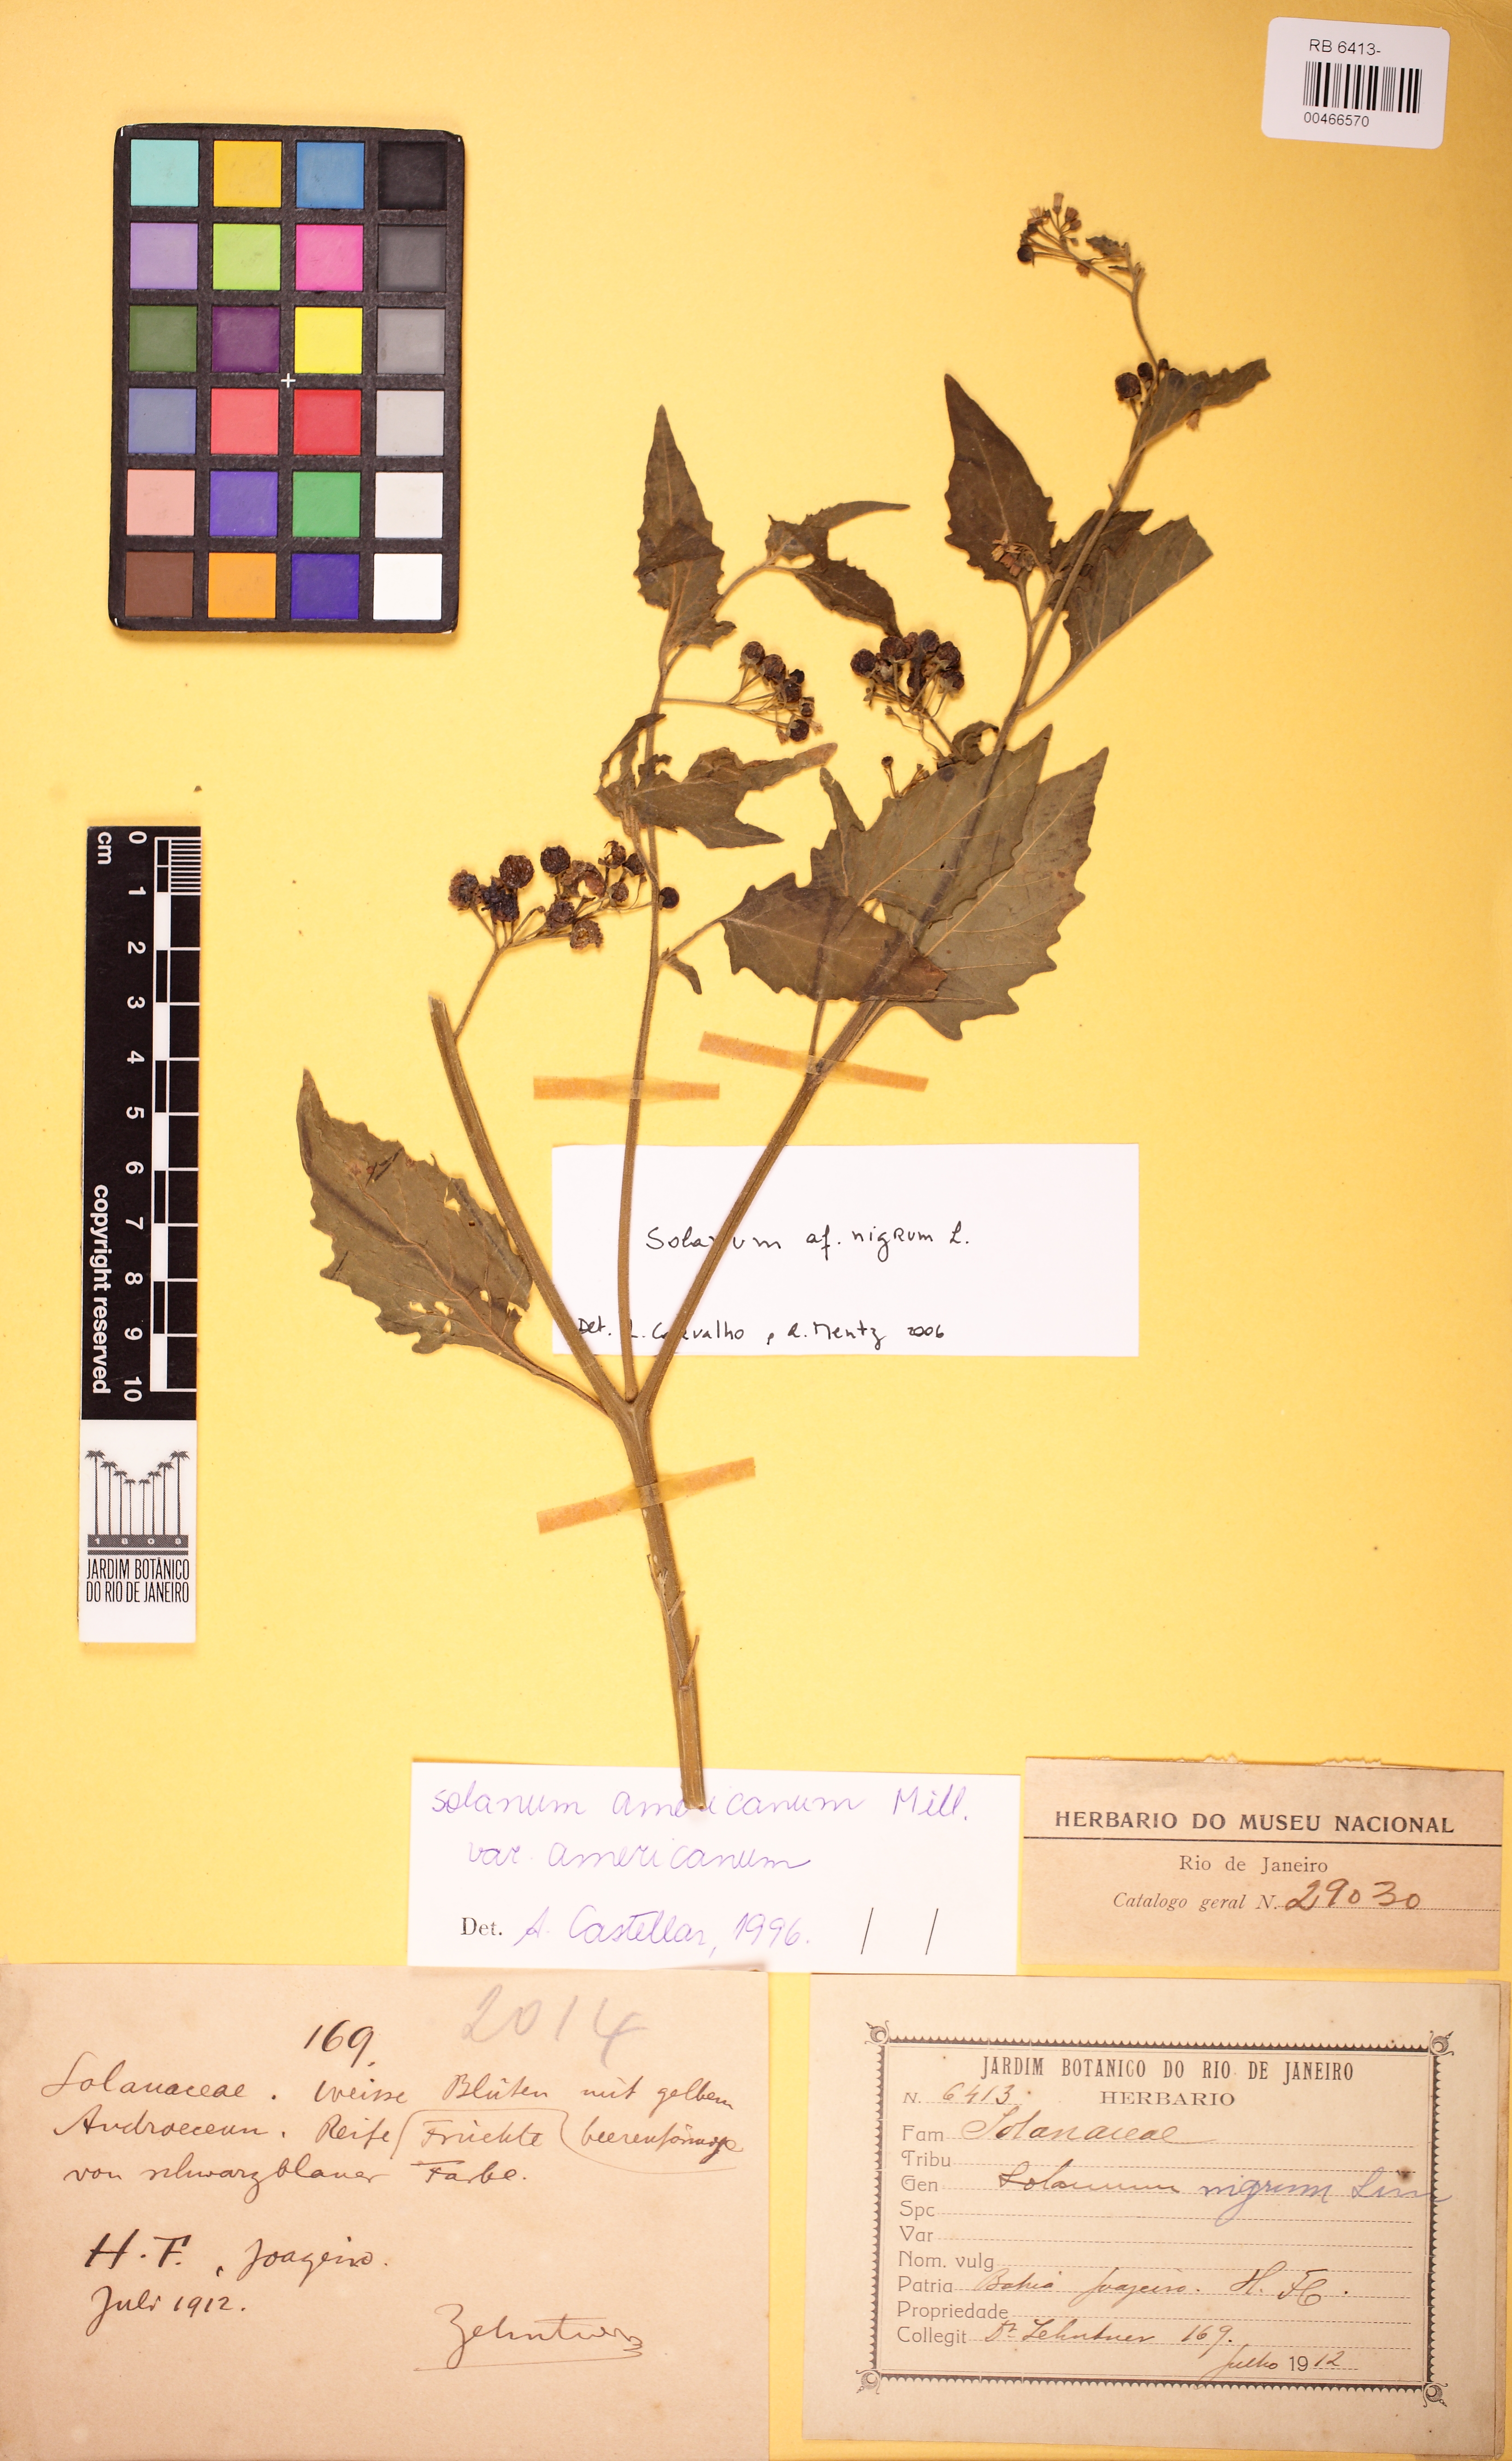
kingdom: Plantae
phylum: Tracheophyta
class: Magnoliopsida
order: Solanales
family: Solanaceae
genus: Solanum
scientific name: Solanum americanum
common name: American black nightshade
